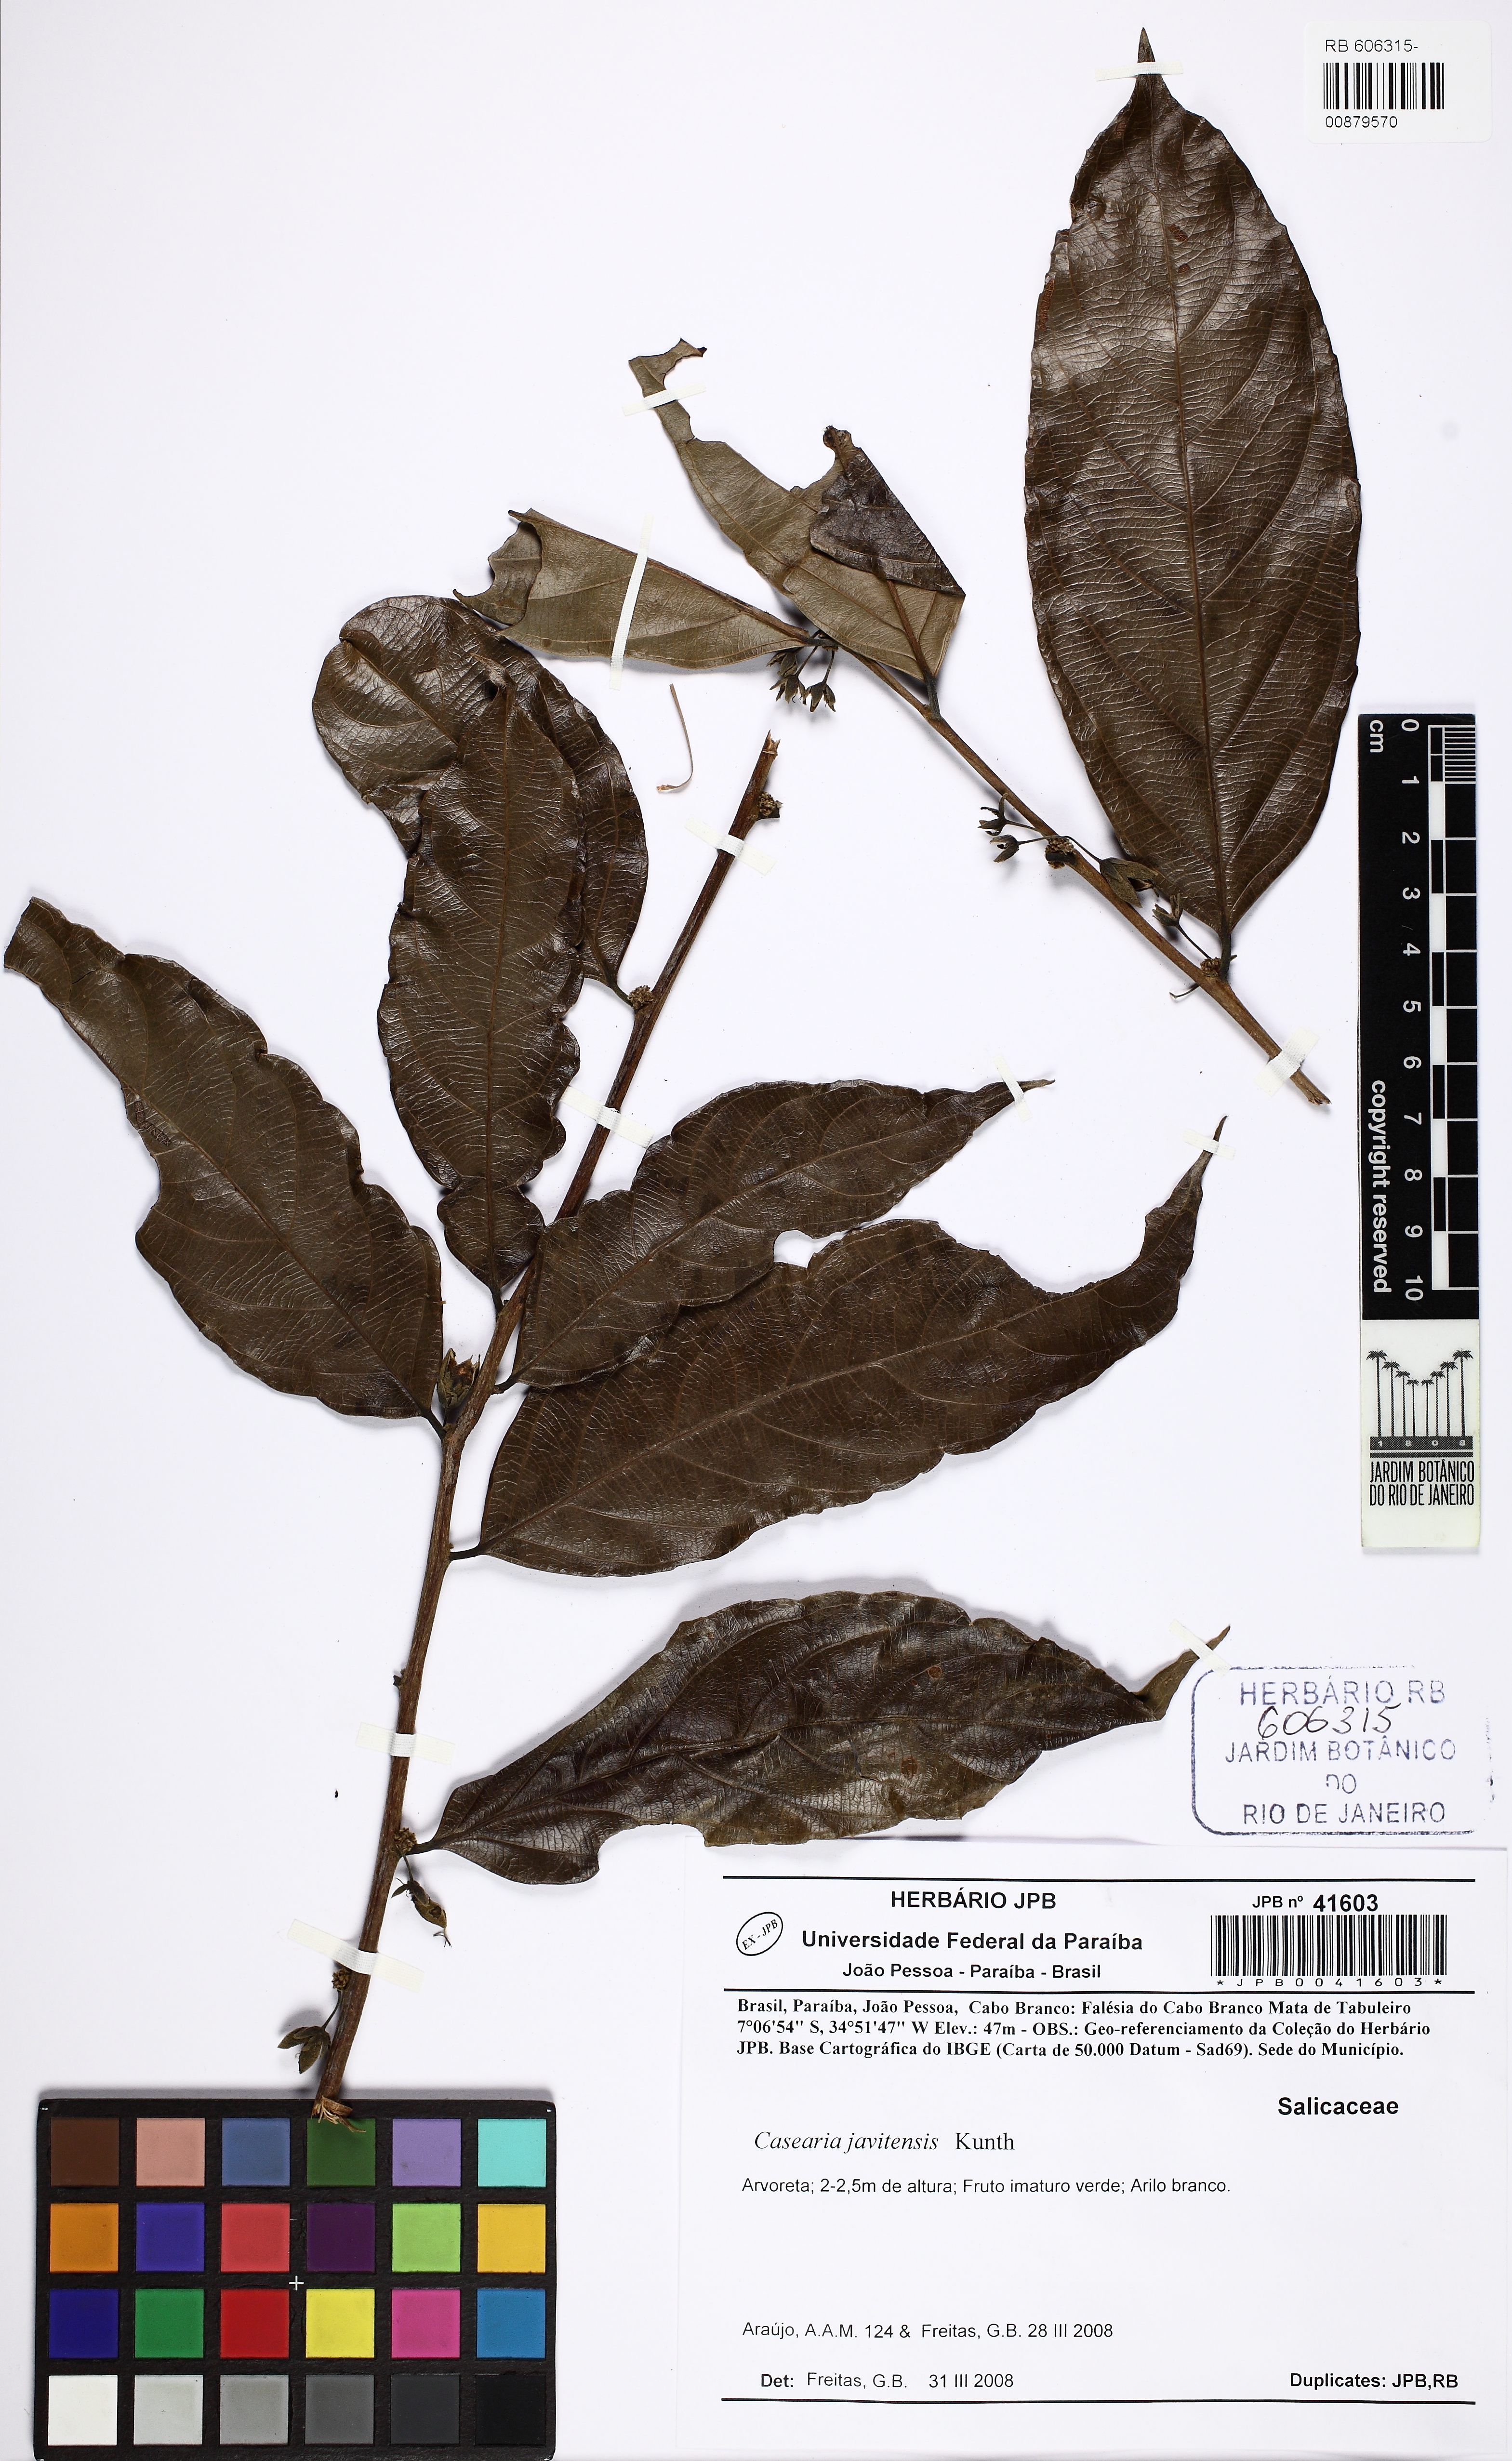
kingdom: Plantae
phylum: Tracheophyta
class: Magnoliopsida
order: Malpighiales
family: Salicaceae
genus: Piparea
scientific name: Piparea multiflora
